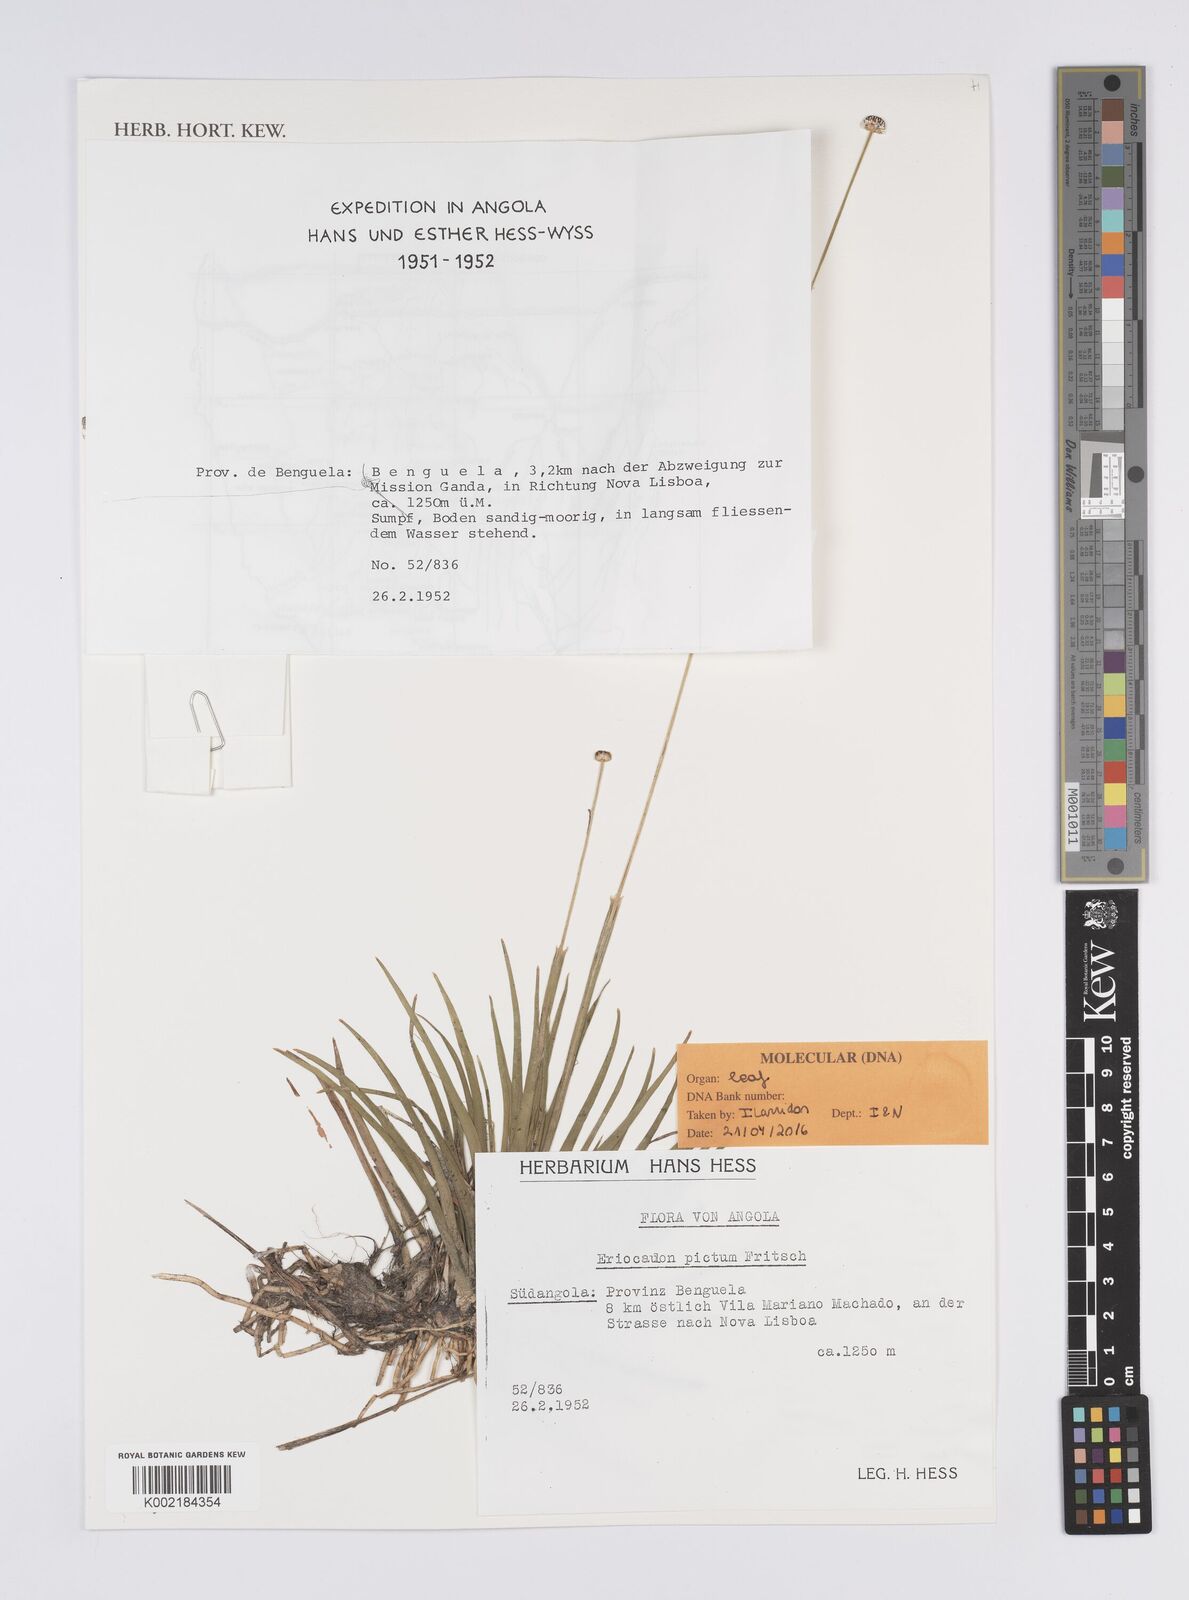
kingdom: Plantae
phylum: Tracheophyta
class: Liliopsida
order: Poales
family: Eriocaulaceae
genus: Eriocaulon
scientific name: Eriocaulon pictum
